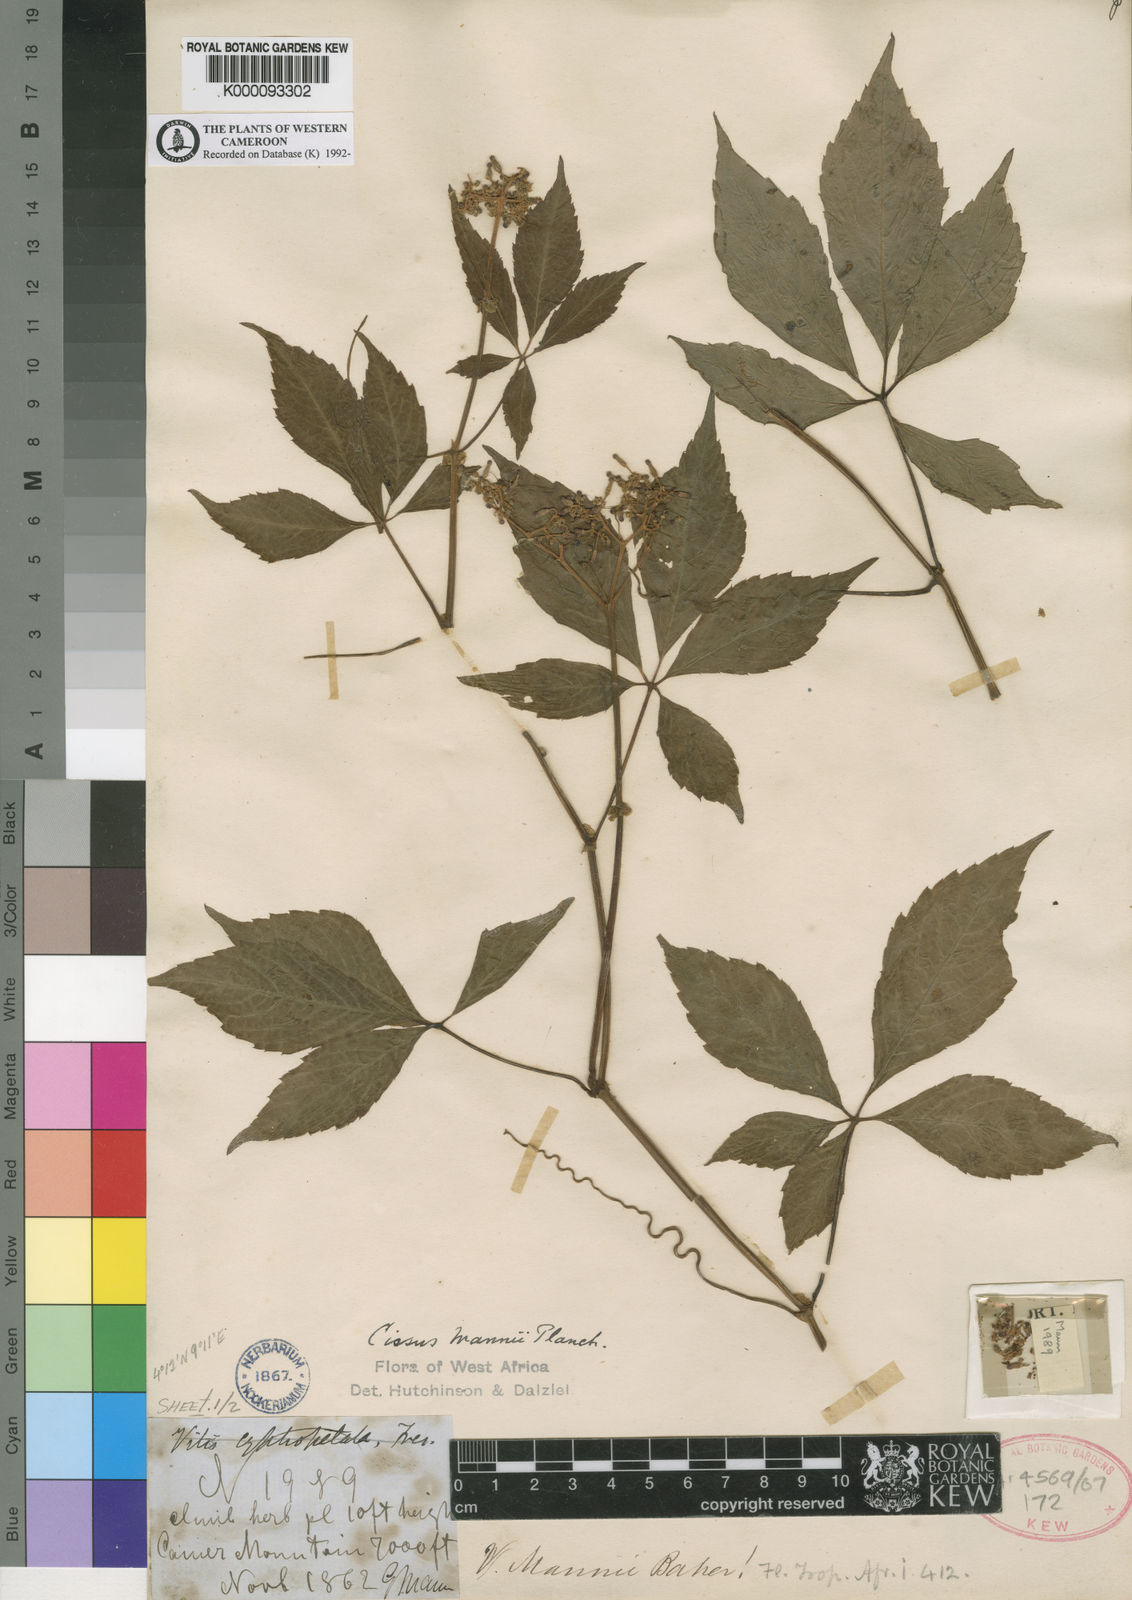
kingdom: Plantae
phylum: Tracheophyta
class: Magnoliopsida
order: Vitales
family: Vitaceae
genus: Cyphostemma
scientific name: Cyphostemma mannii
